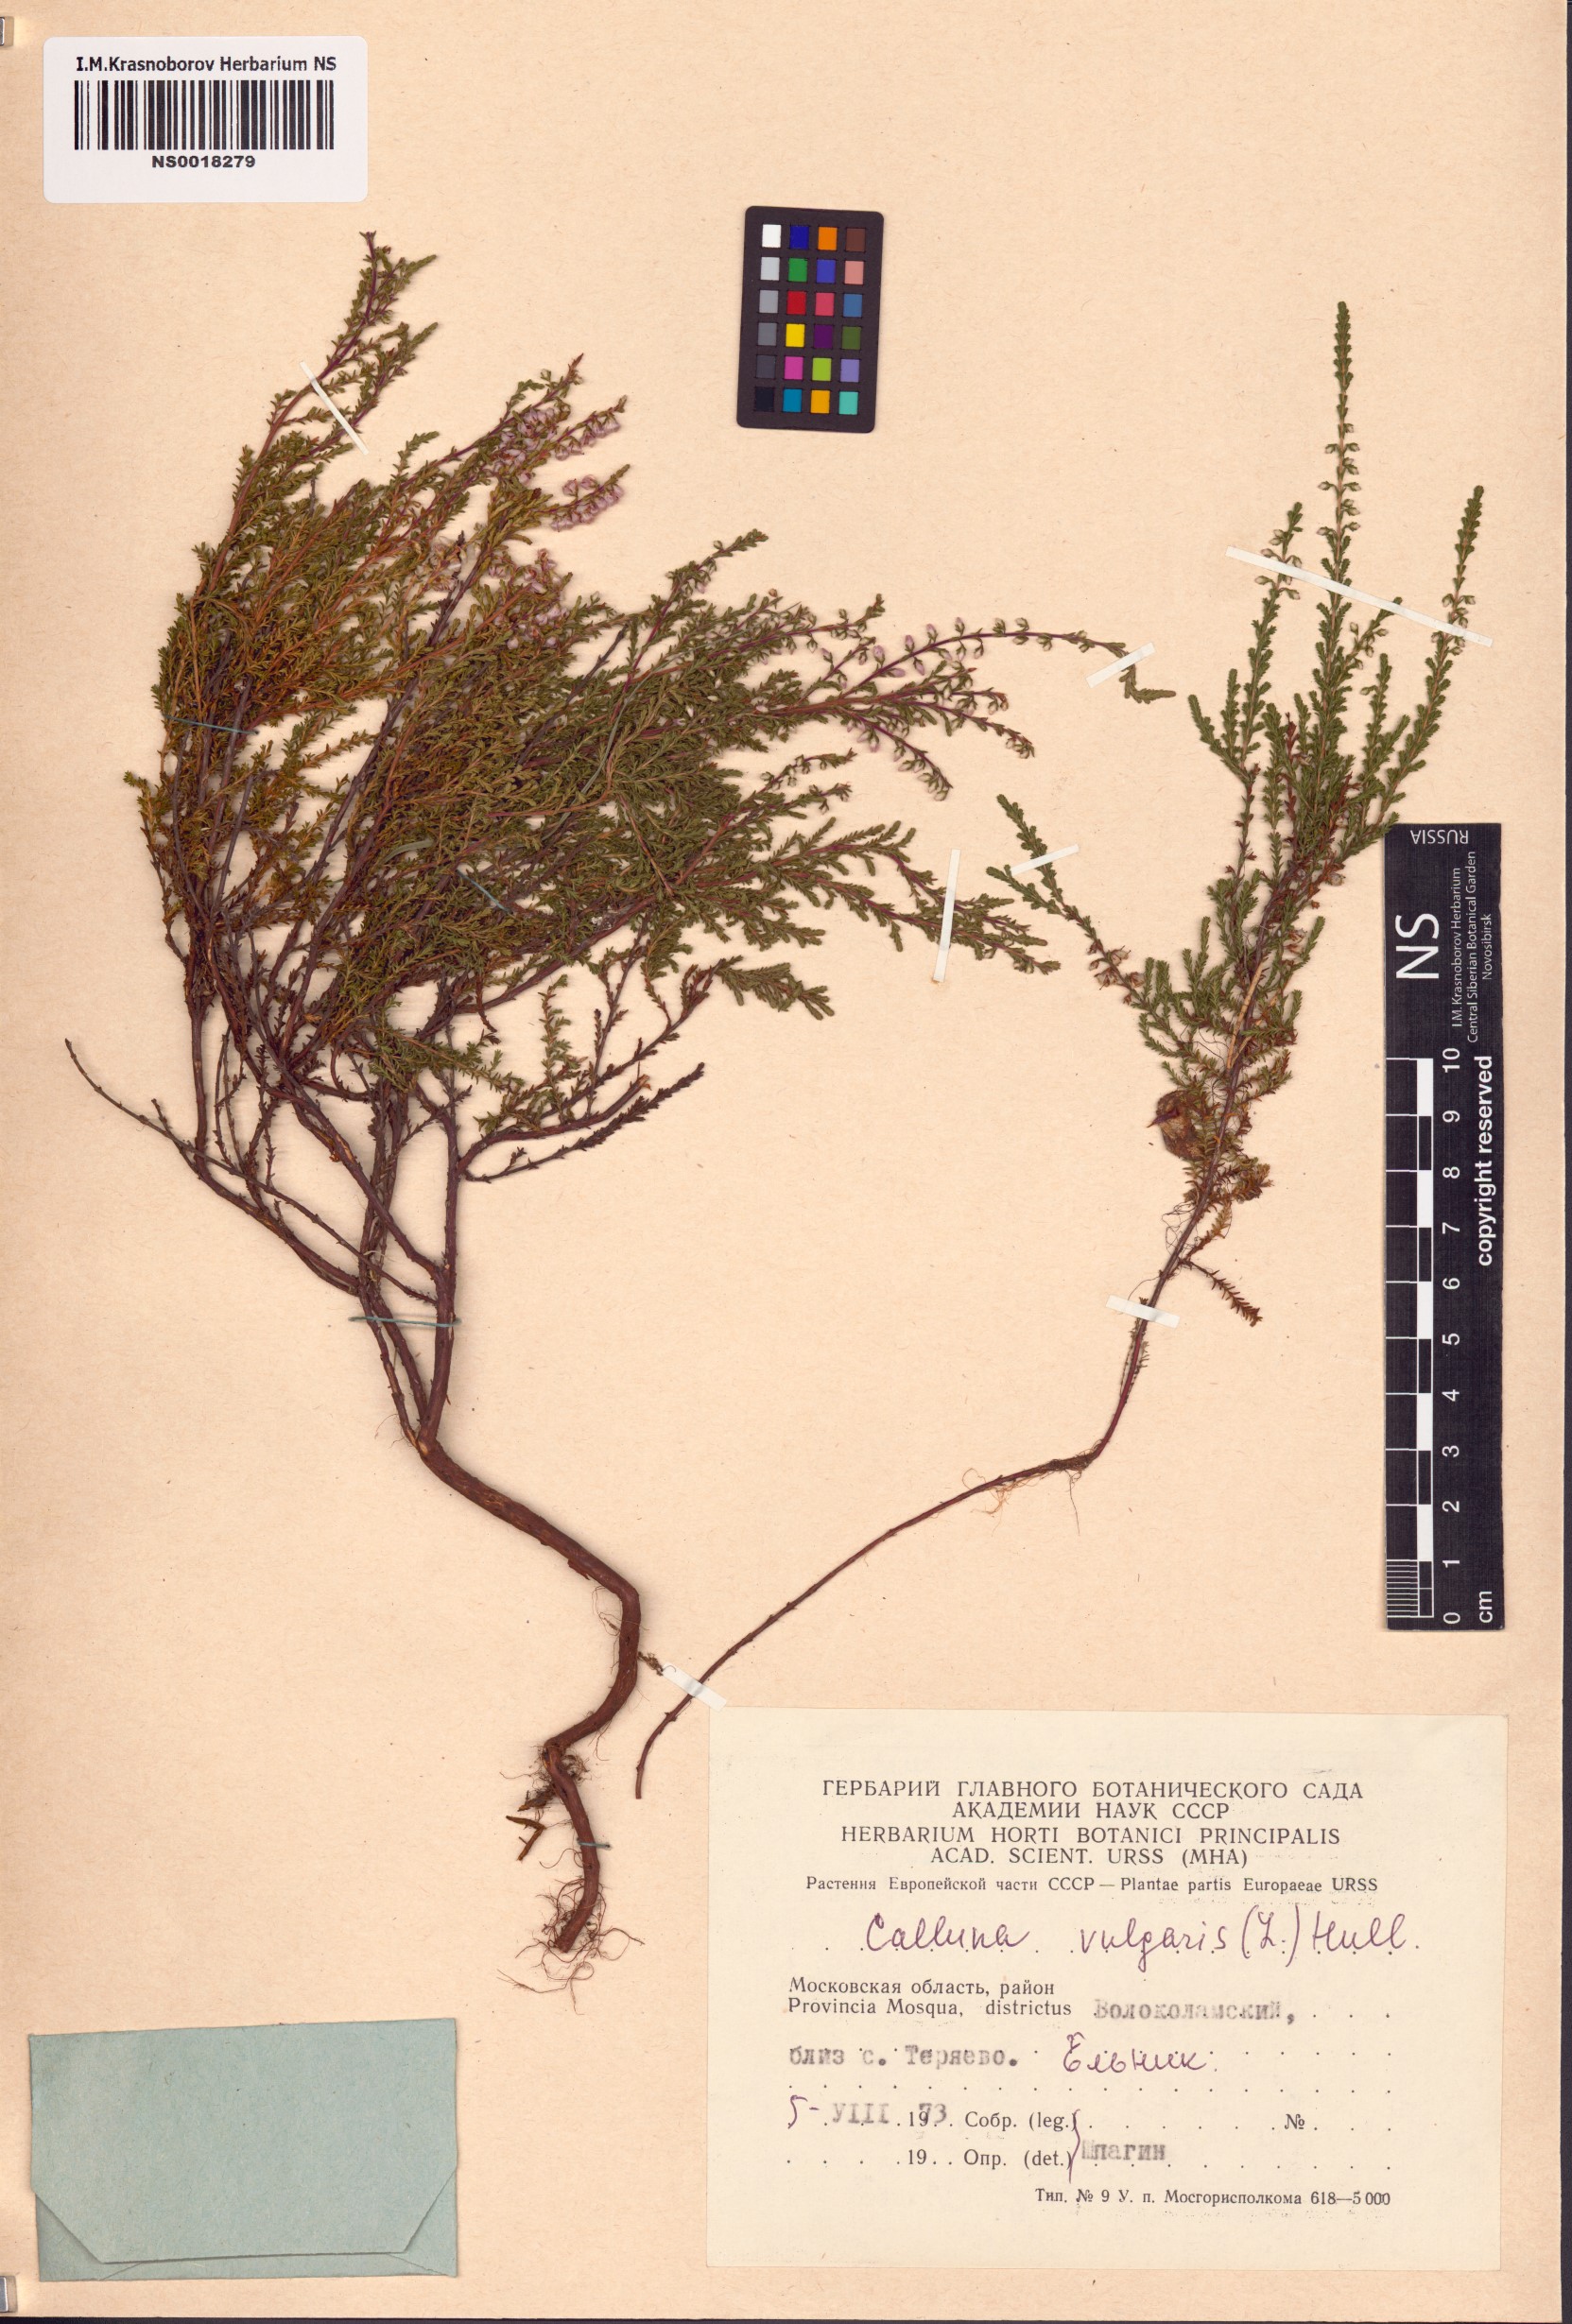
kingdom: Plantae
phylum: Tracheophyta
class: Magnoliopsida
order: Ericales
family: Ericaceae
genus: Calluna
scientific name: Calluna vulgaris
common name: Heather
